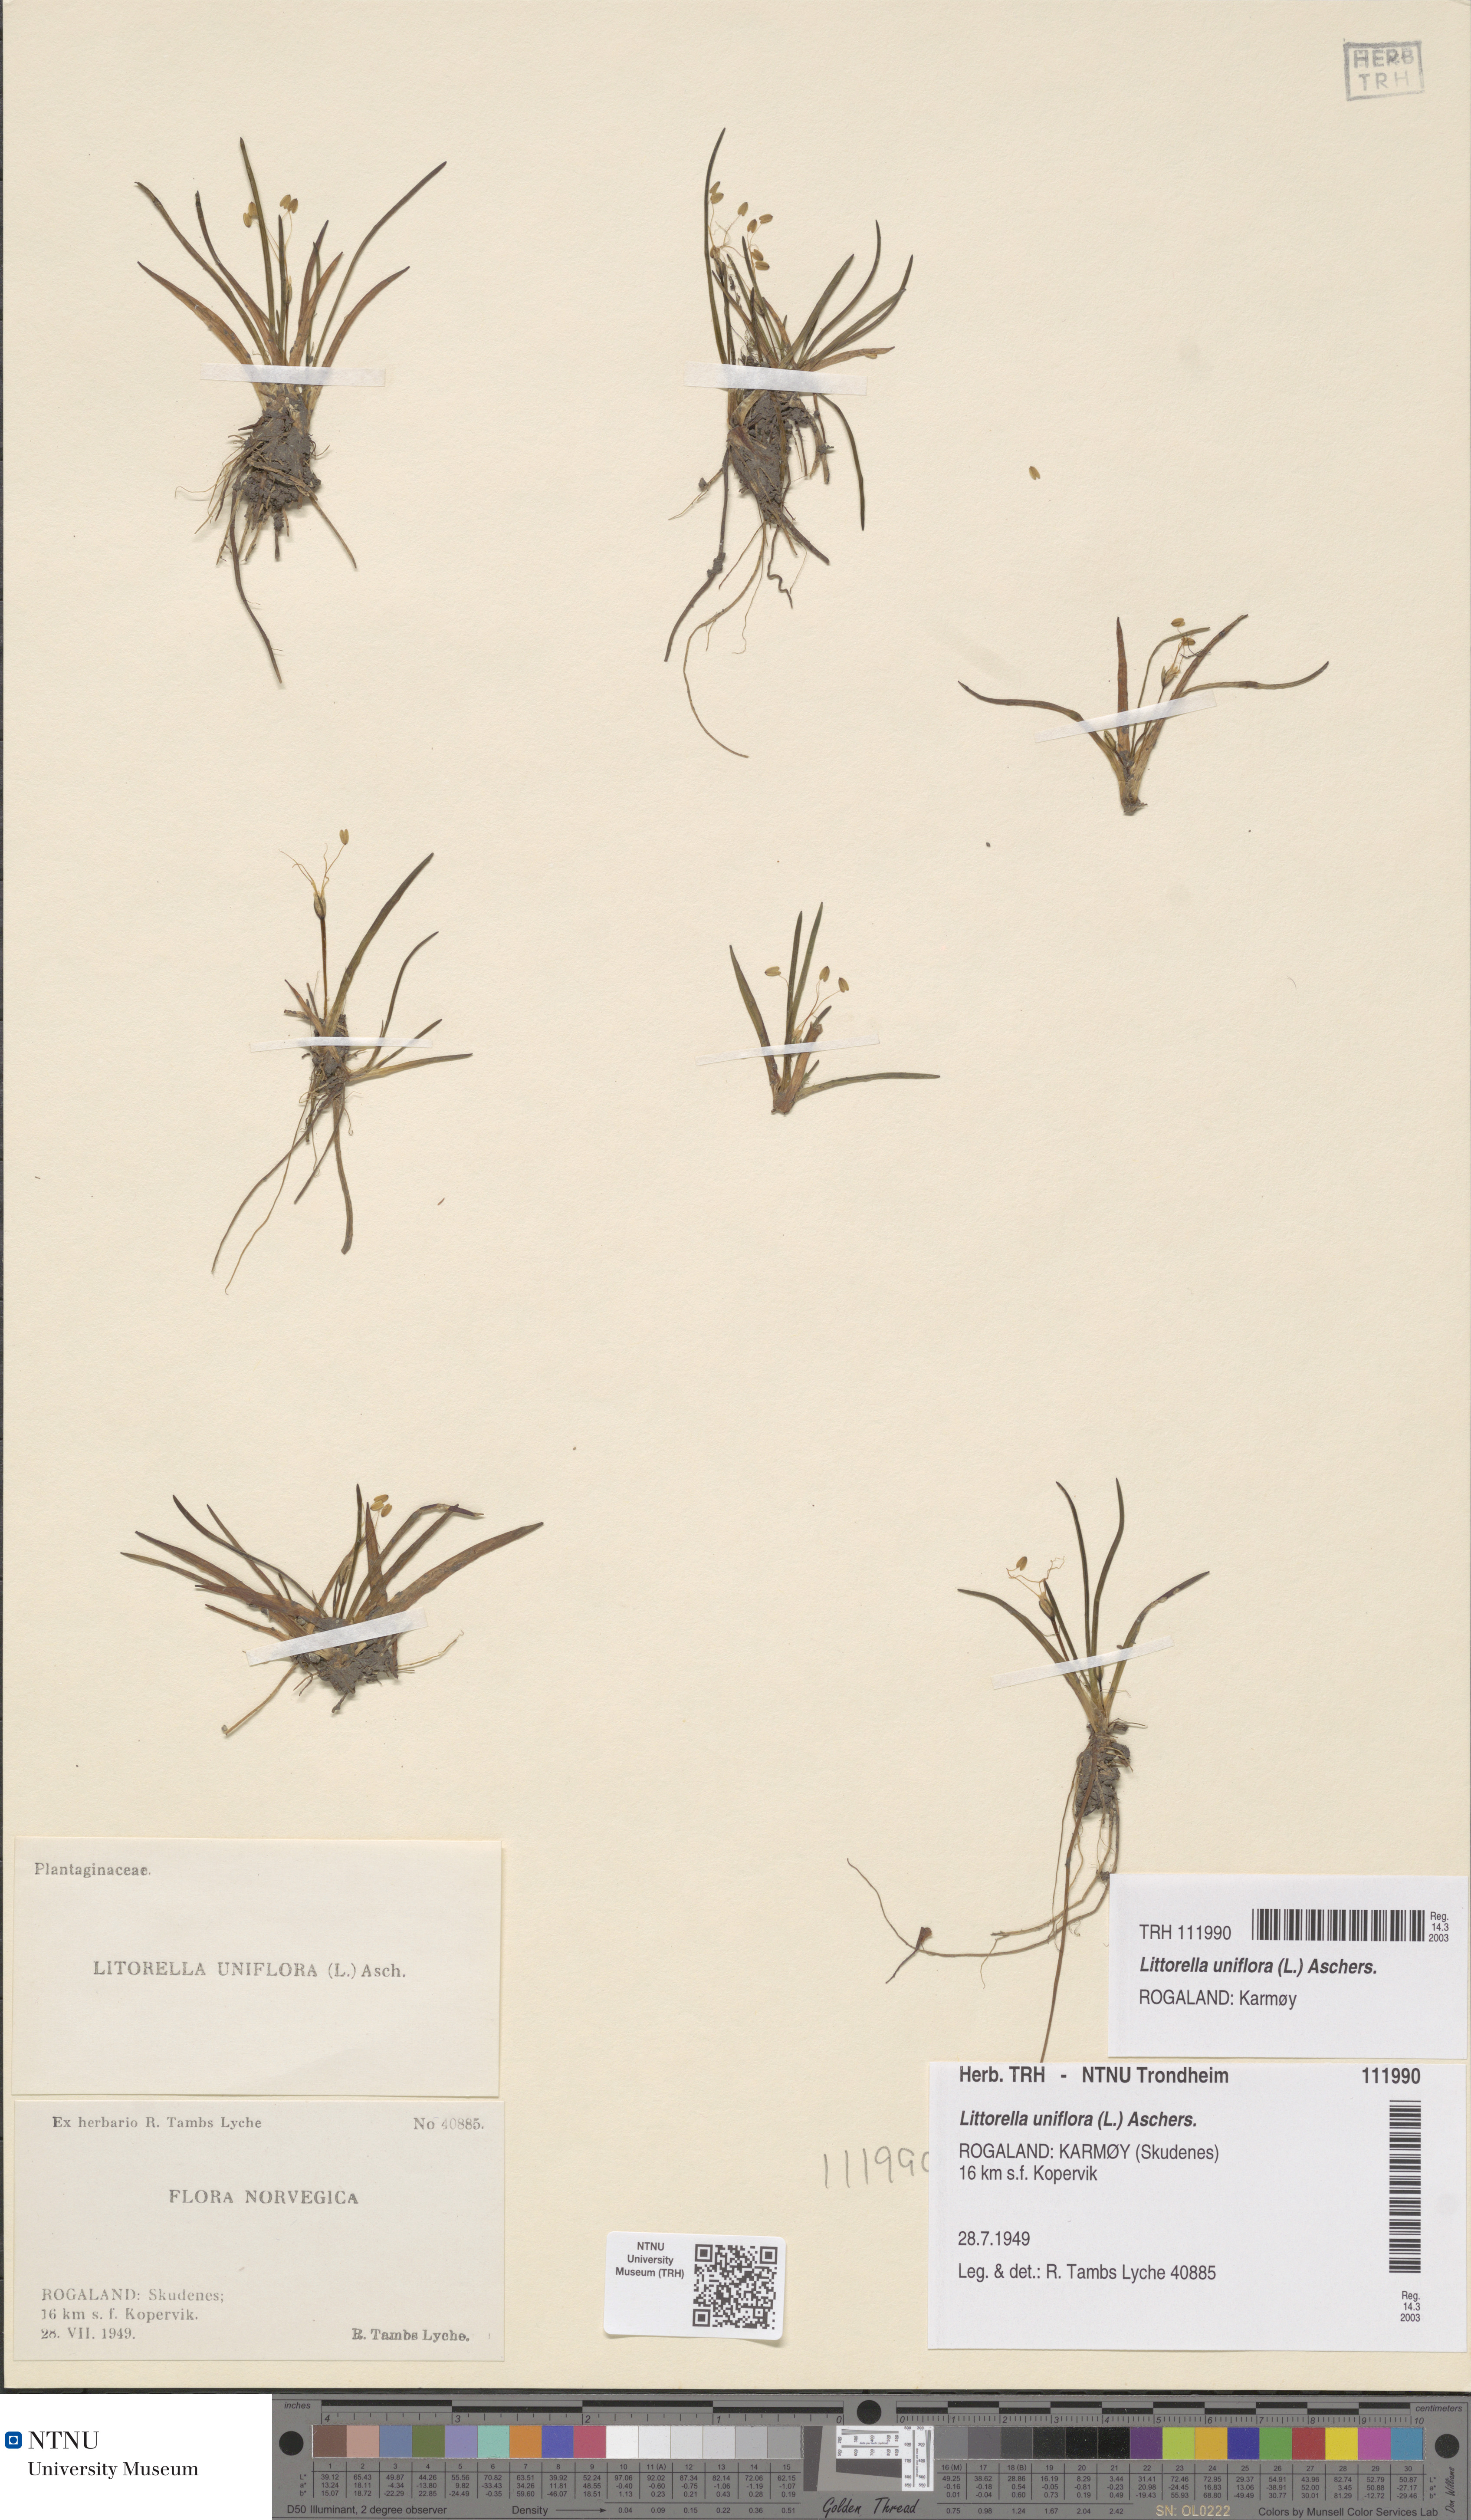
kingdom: Plantae
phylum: Tracheophyta
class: Magnoliopsida
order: Lamiales
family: Plantaginaceae
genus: Littorella
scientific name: Littorella uniflora
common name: Shoreweed
